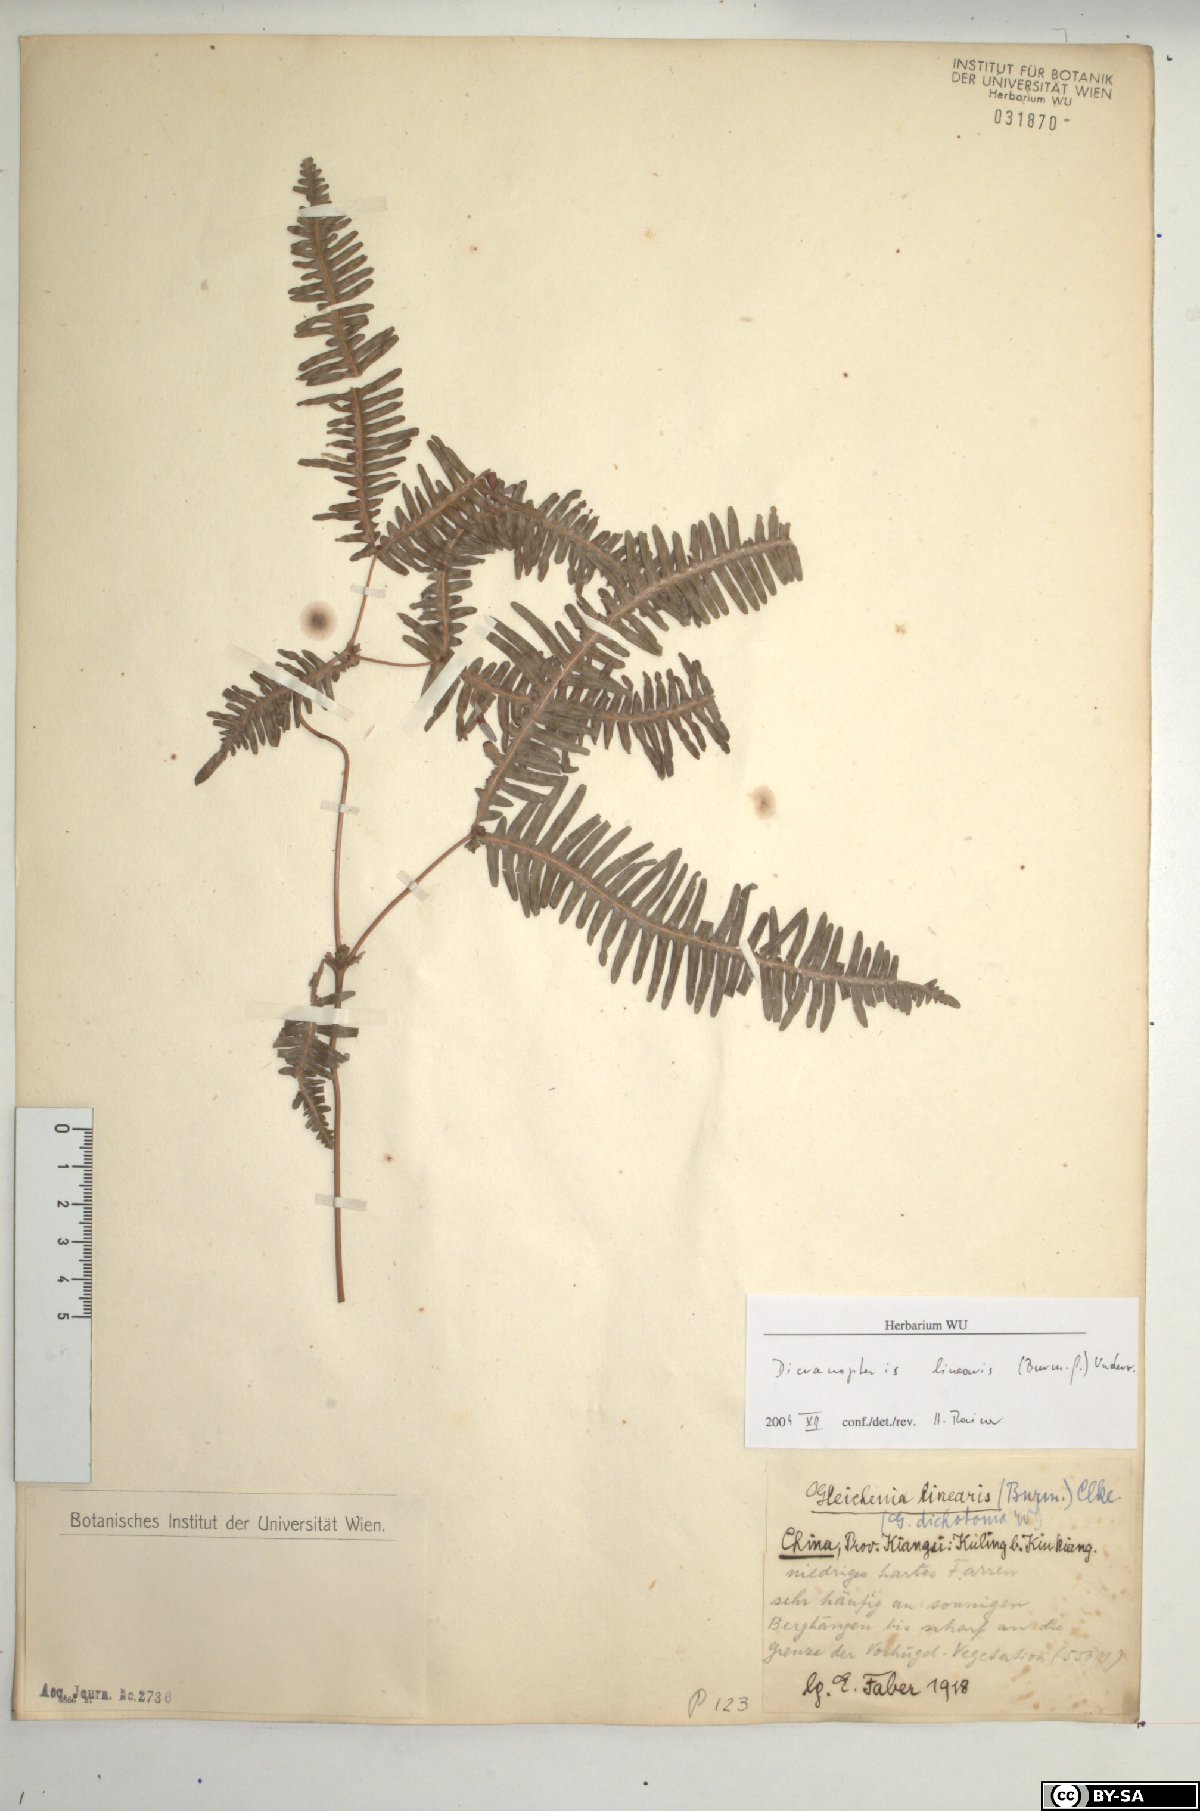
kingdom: Plantae
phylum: Tracheophyta
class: Polypodiopsida
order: Gleicheniales
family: Gleicheniaceae
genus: Dicranopteris
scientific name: Dicranopteris linearis
